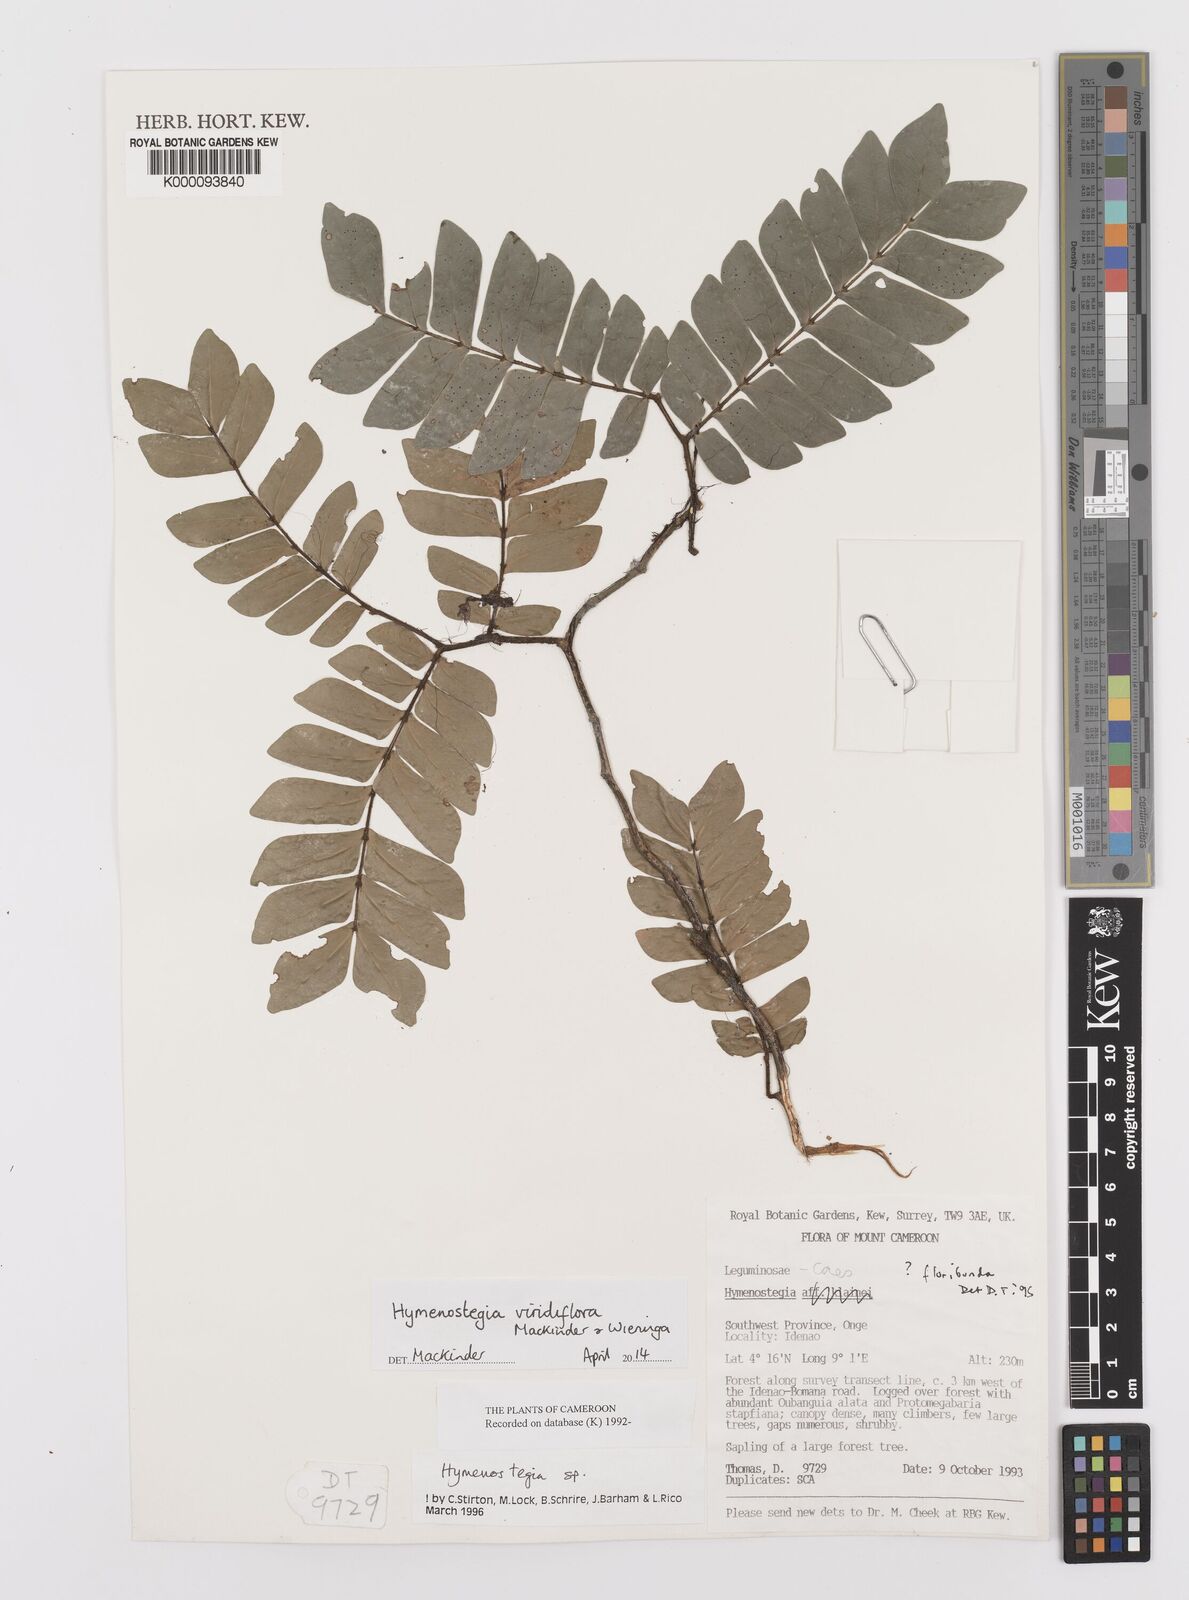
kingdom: Plantae
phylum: Tracheophyta
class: Magnoliopsida
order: Fabales
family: Fabaceae
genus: Hymenostegia
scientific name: Hymenostegia
